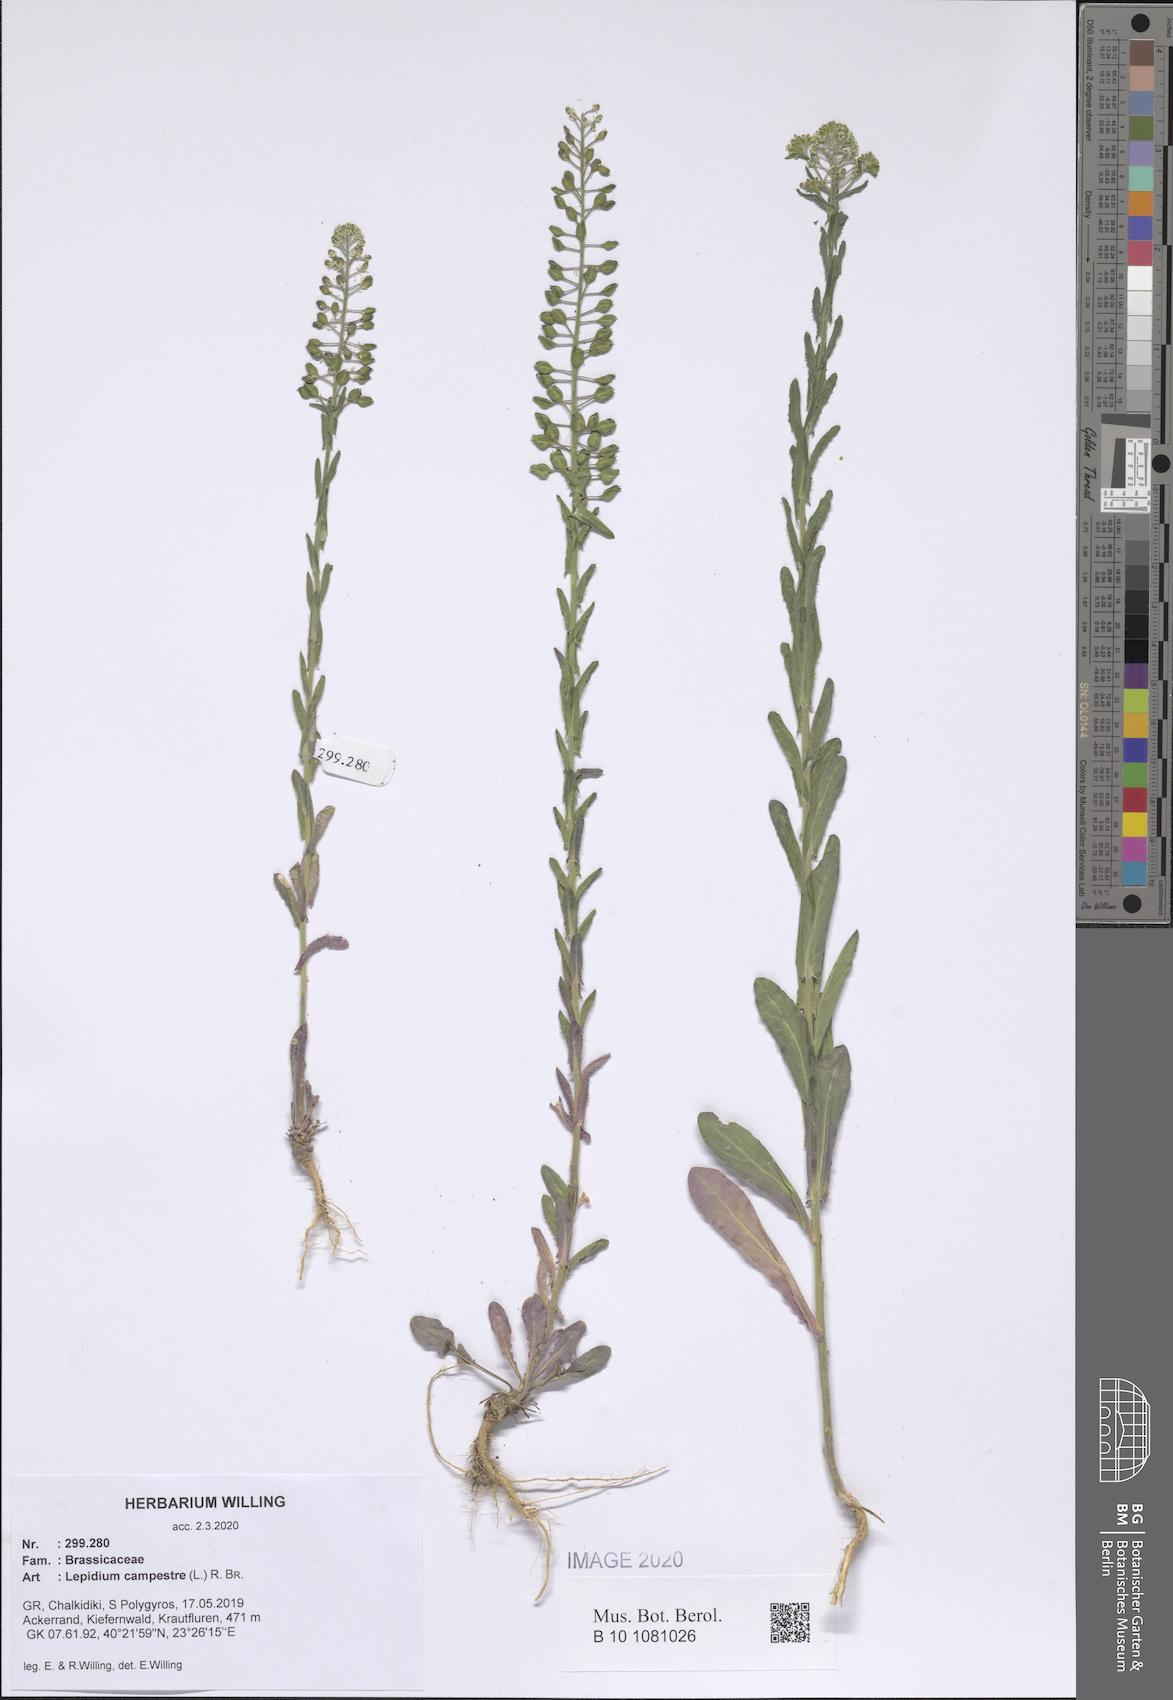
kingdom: Plantae
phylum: Tracheophyta
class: Magnoliopsida
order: Brassicales
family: Brassicaceae
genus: Lepidium
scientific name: Lepidium campestre
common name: Field pepperwort
